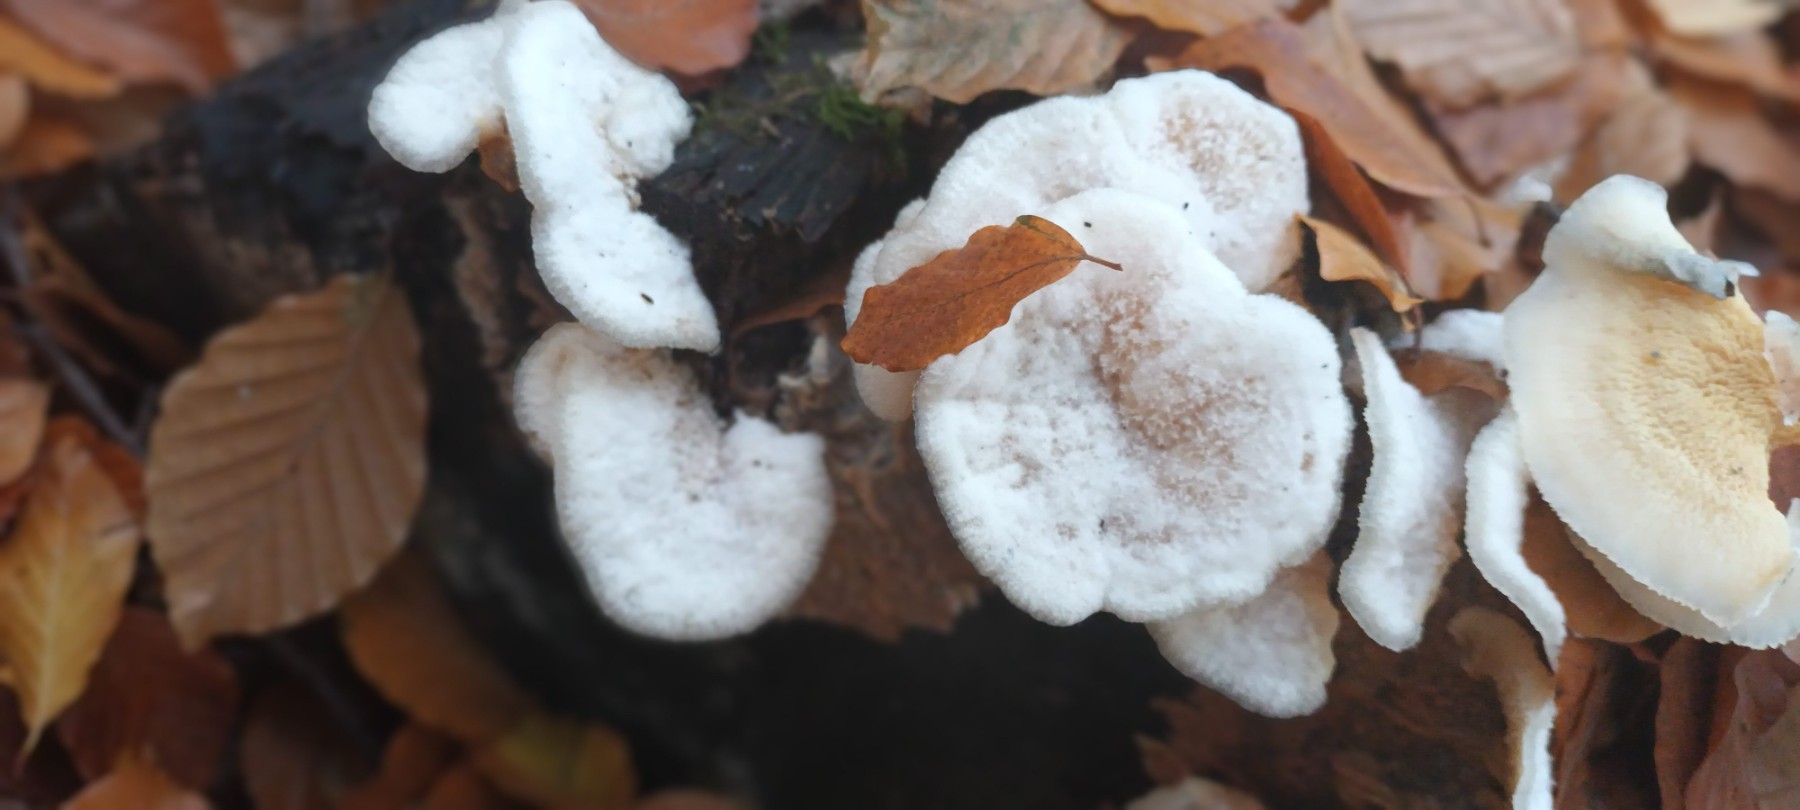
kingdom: Fungi
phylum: Basidiomycota
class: Agaricomycetes
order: Polyporales
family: Meruliaceae
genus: Phlebia
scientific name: Phlebia tremellosa
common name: bævrende åresvamp
